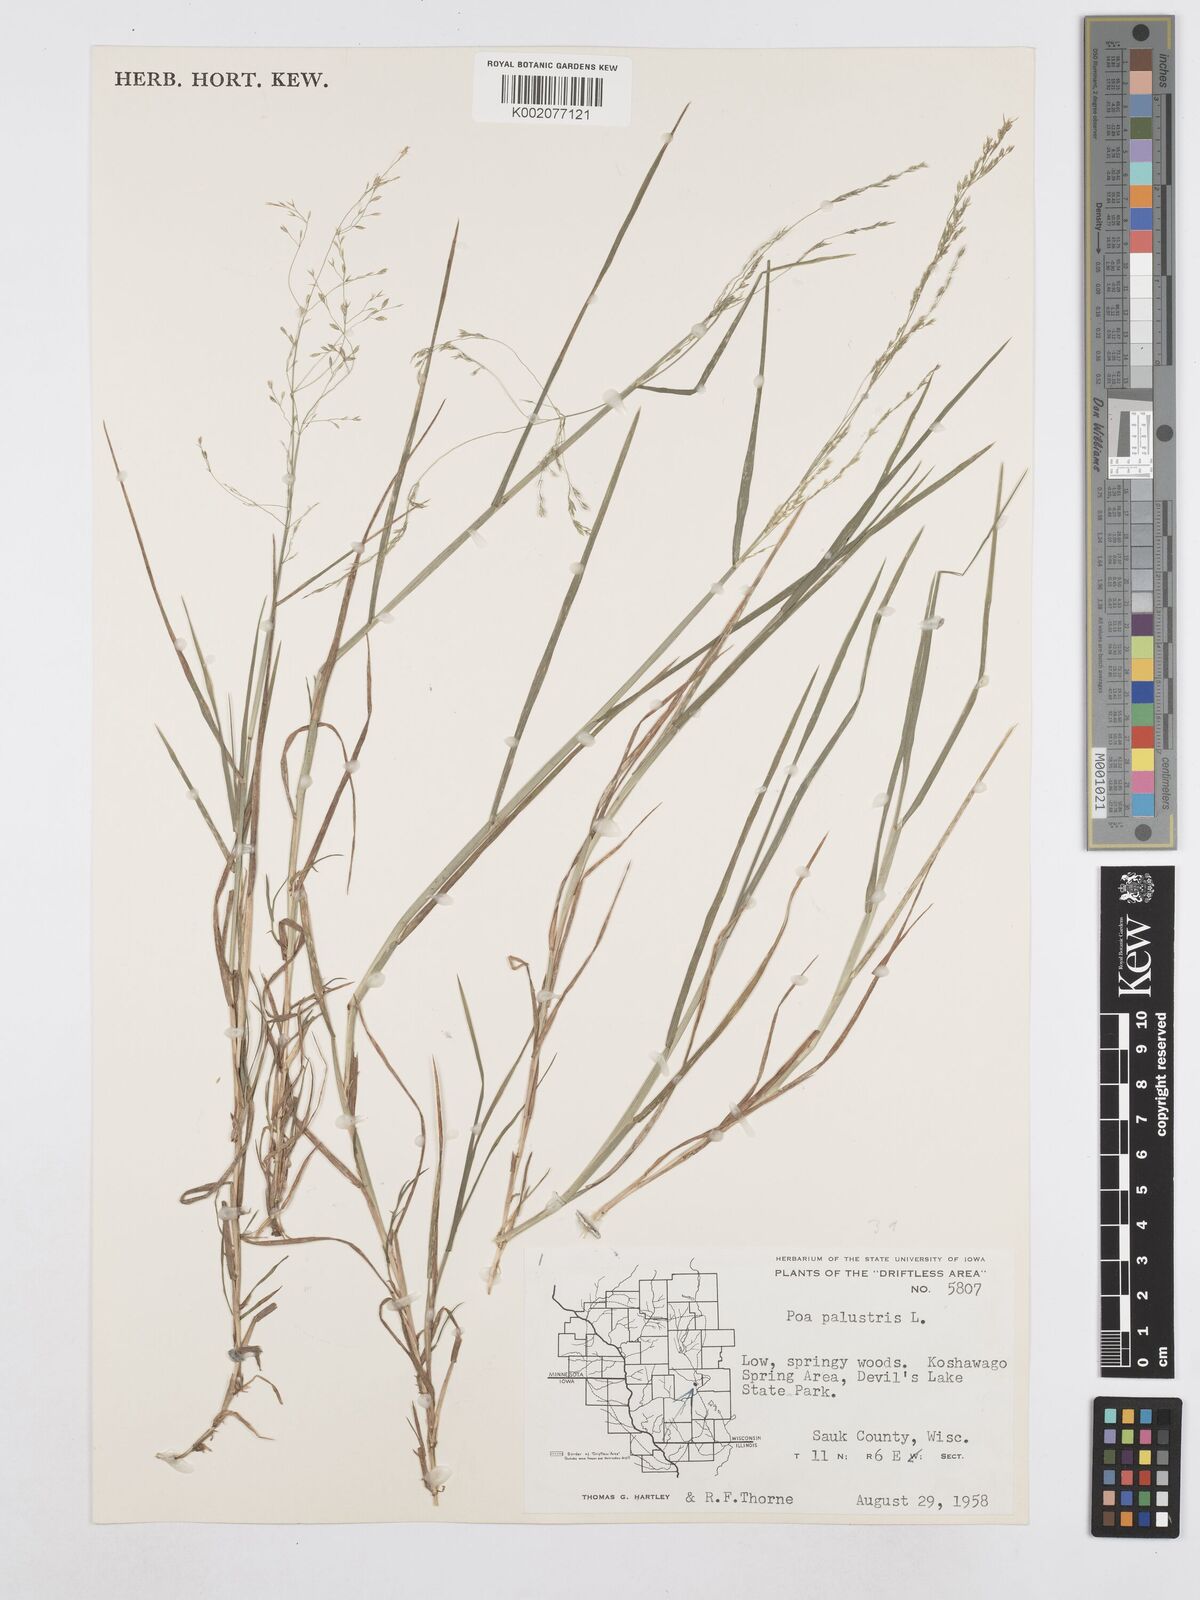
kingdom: Plantae
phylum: Tracheophyta
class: Liliopsida
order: Poales
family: Poaceae
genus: Poa
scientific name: Poa palustris
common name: Swamp meadow-grass
